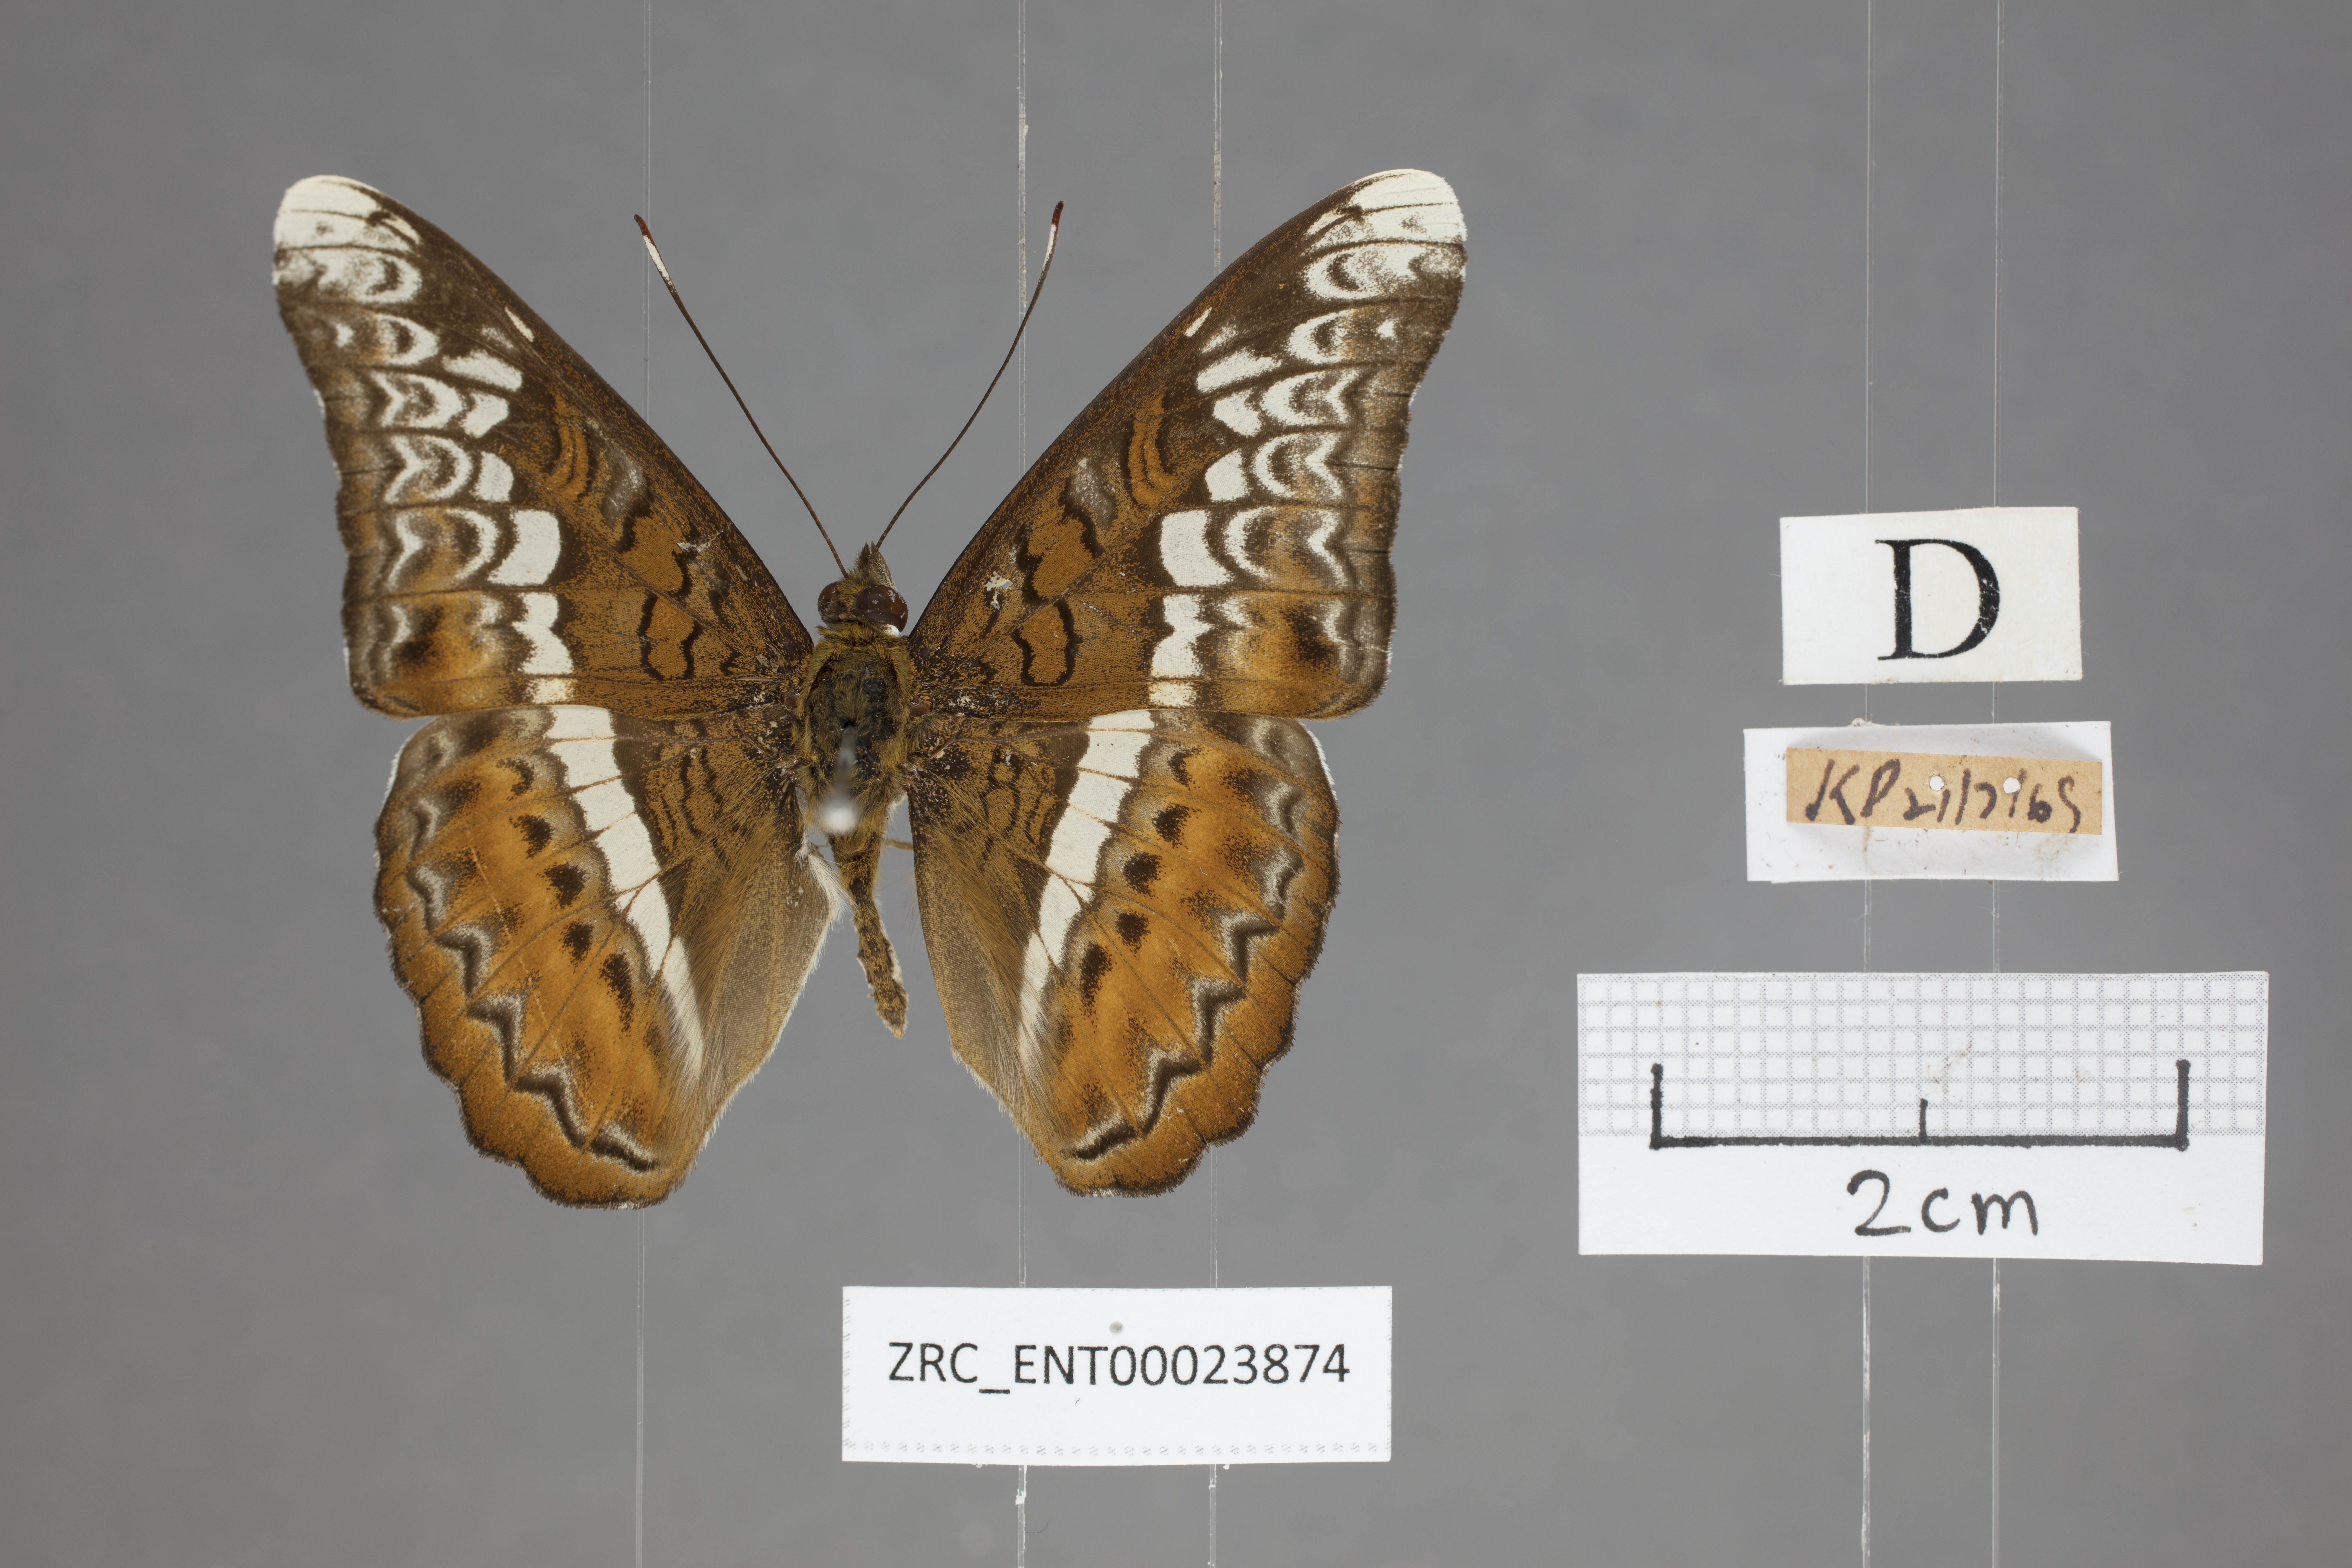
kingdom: Animalia
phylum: Arthropoda
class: Insecta
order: Lepidoptera
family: Nymphalidae
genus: Lebadea
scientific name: Lebadea martha
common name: Knight
